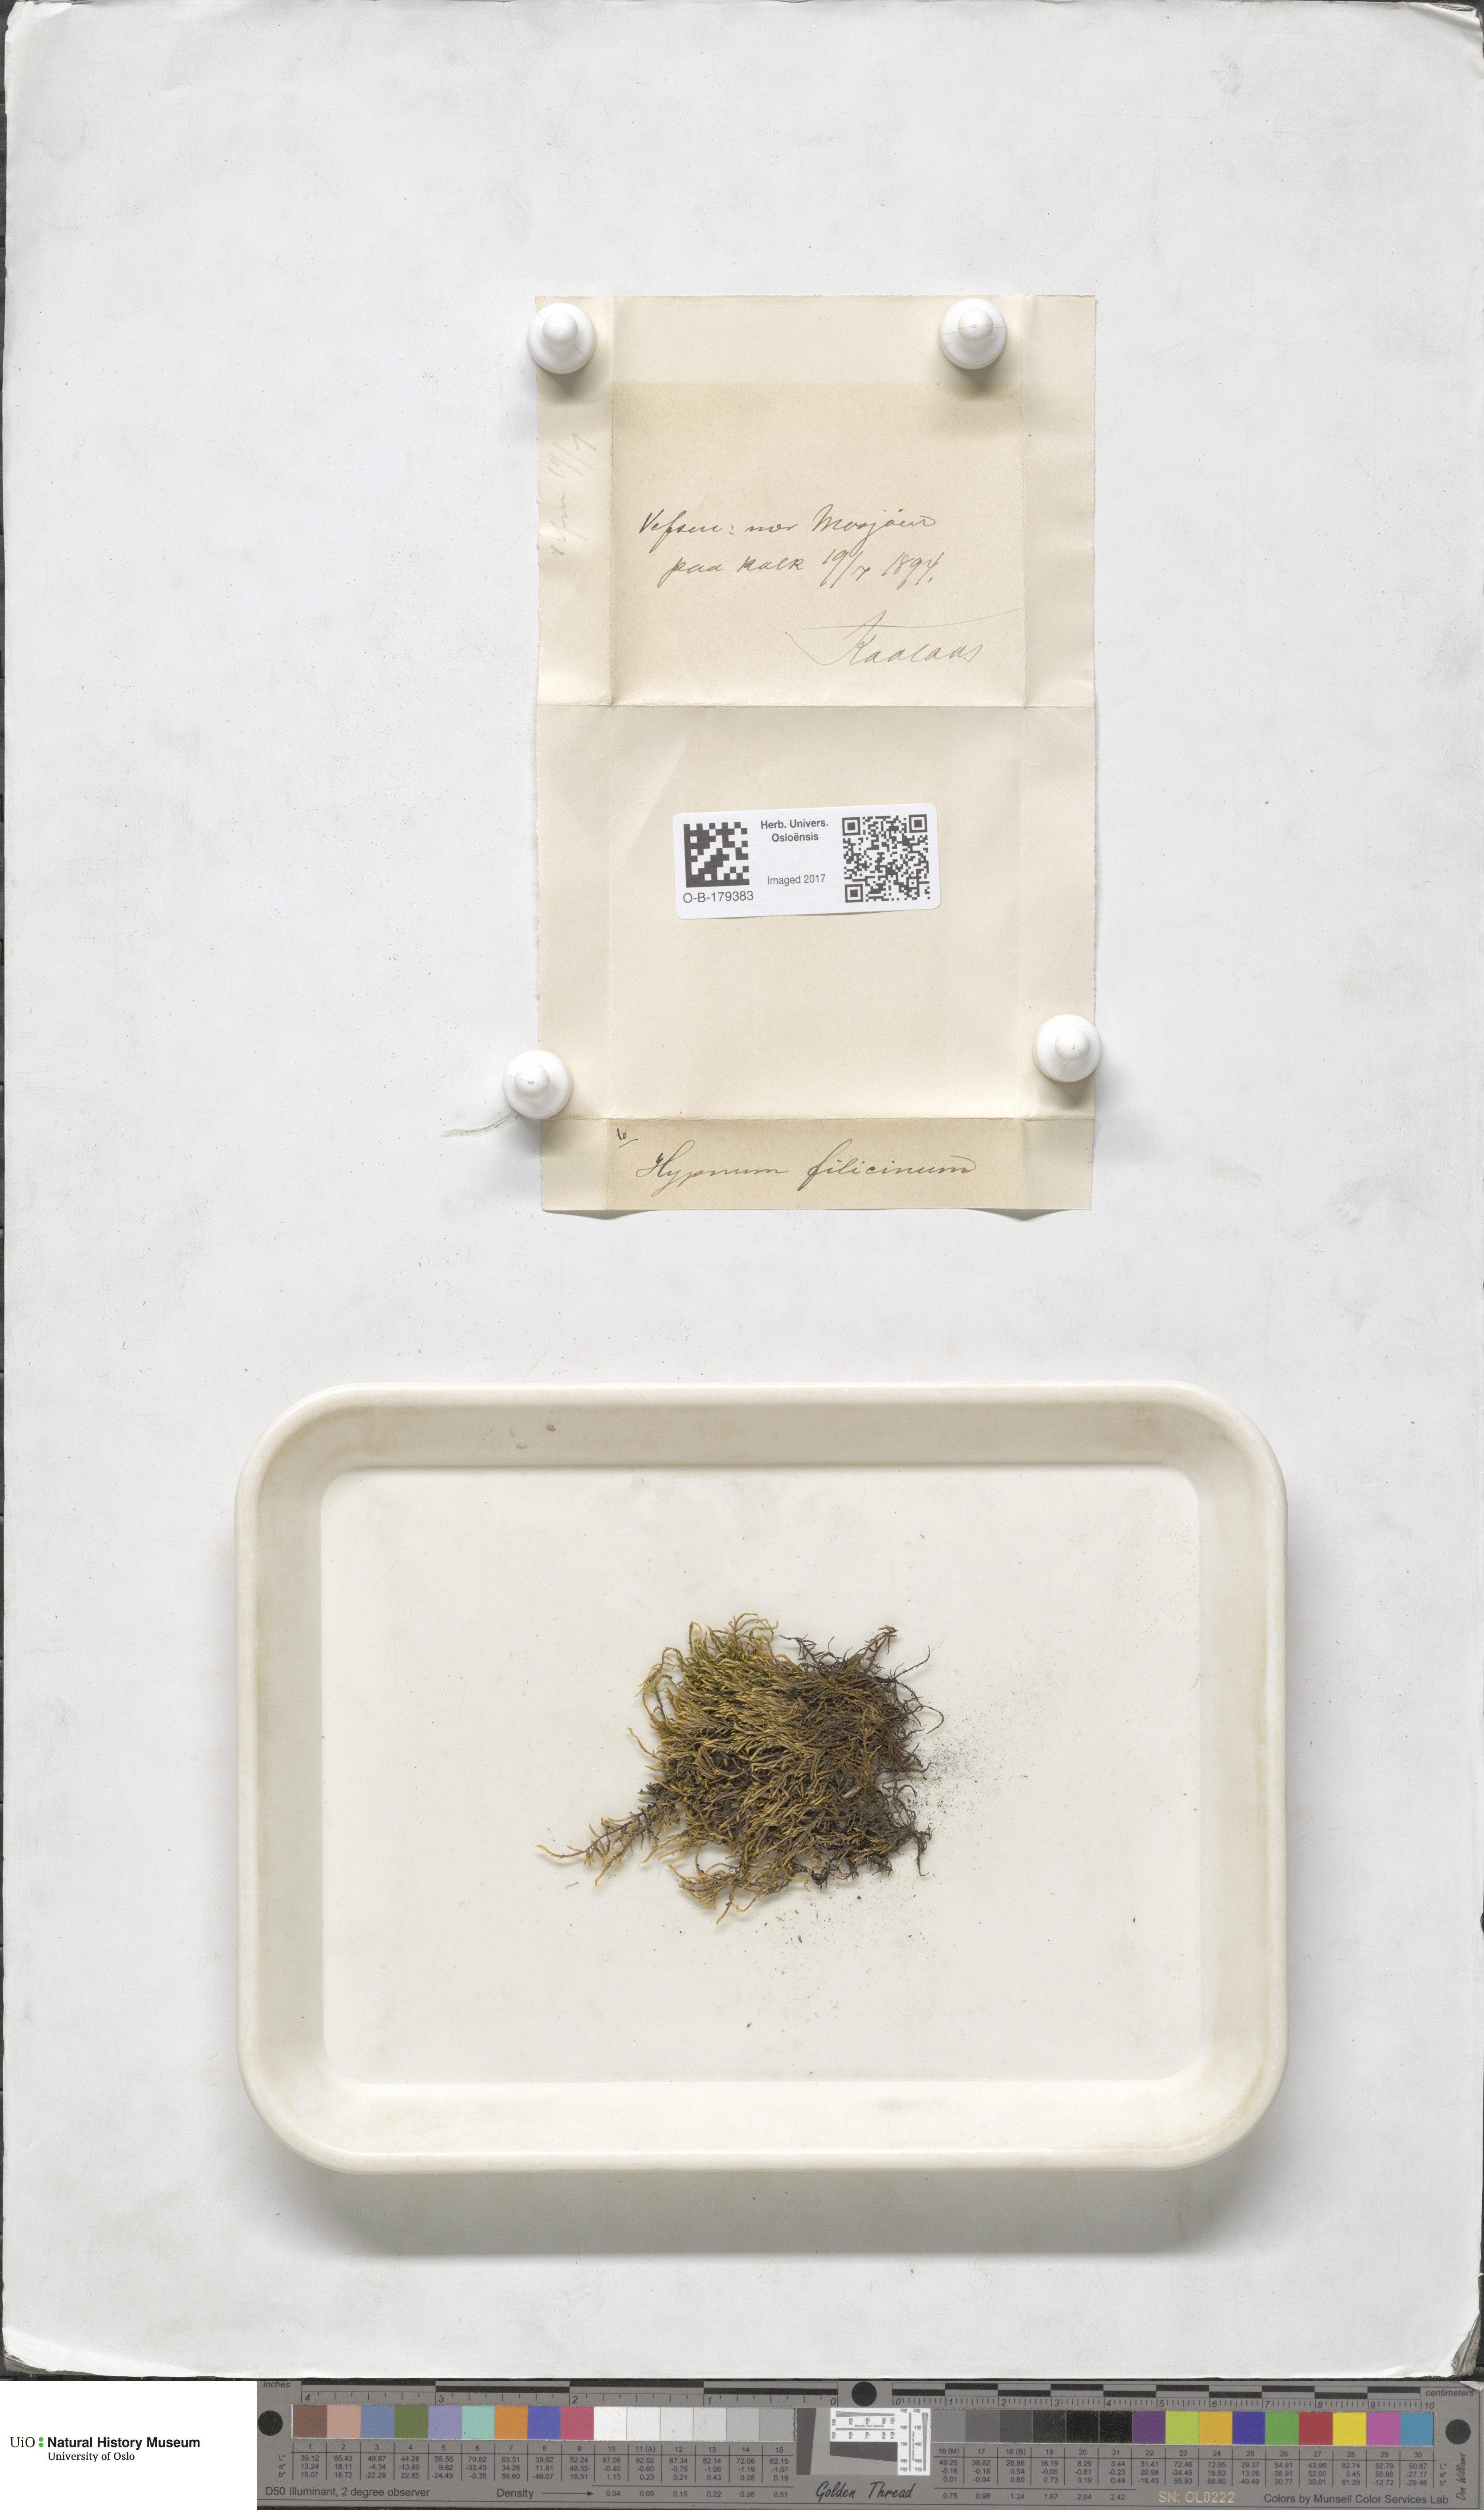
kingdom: Plantae
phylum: Bryophyta
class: Bryopsida
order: Hypnales
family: Amblystegiaceae
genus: Cratoneuron
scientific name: Cratoneuron filicinum
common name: Fern-leaved hook moss
